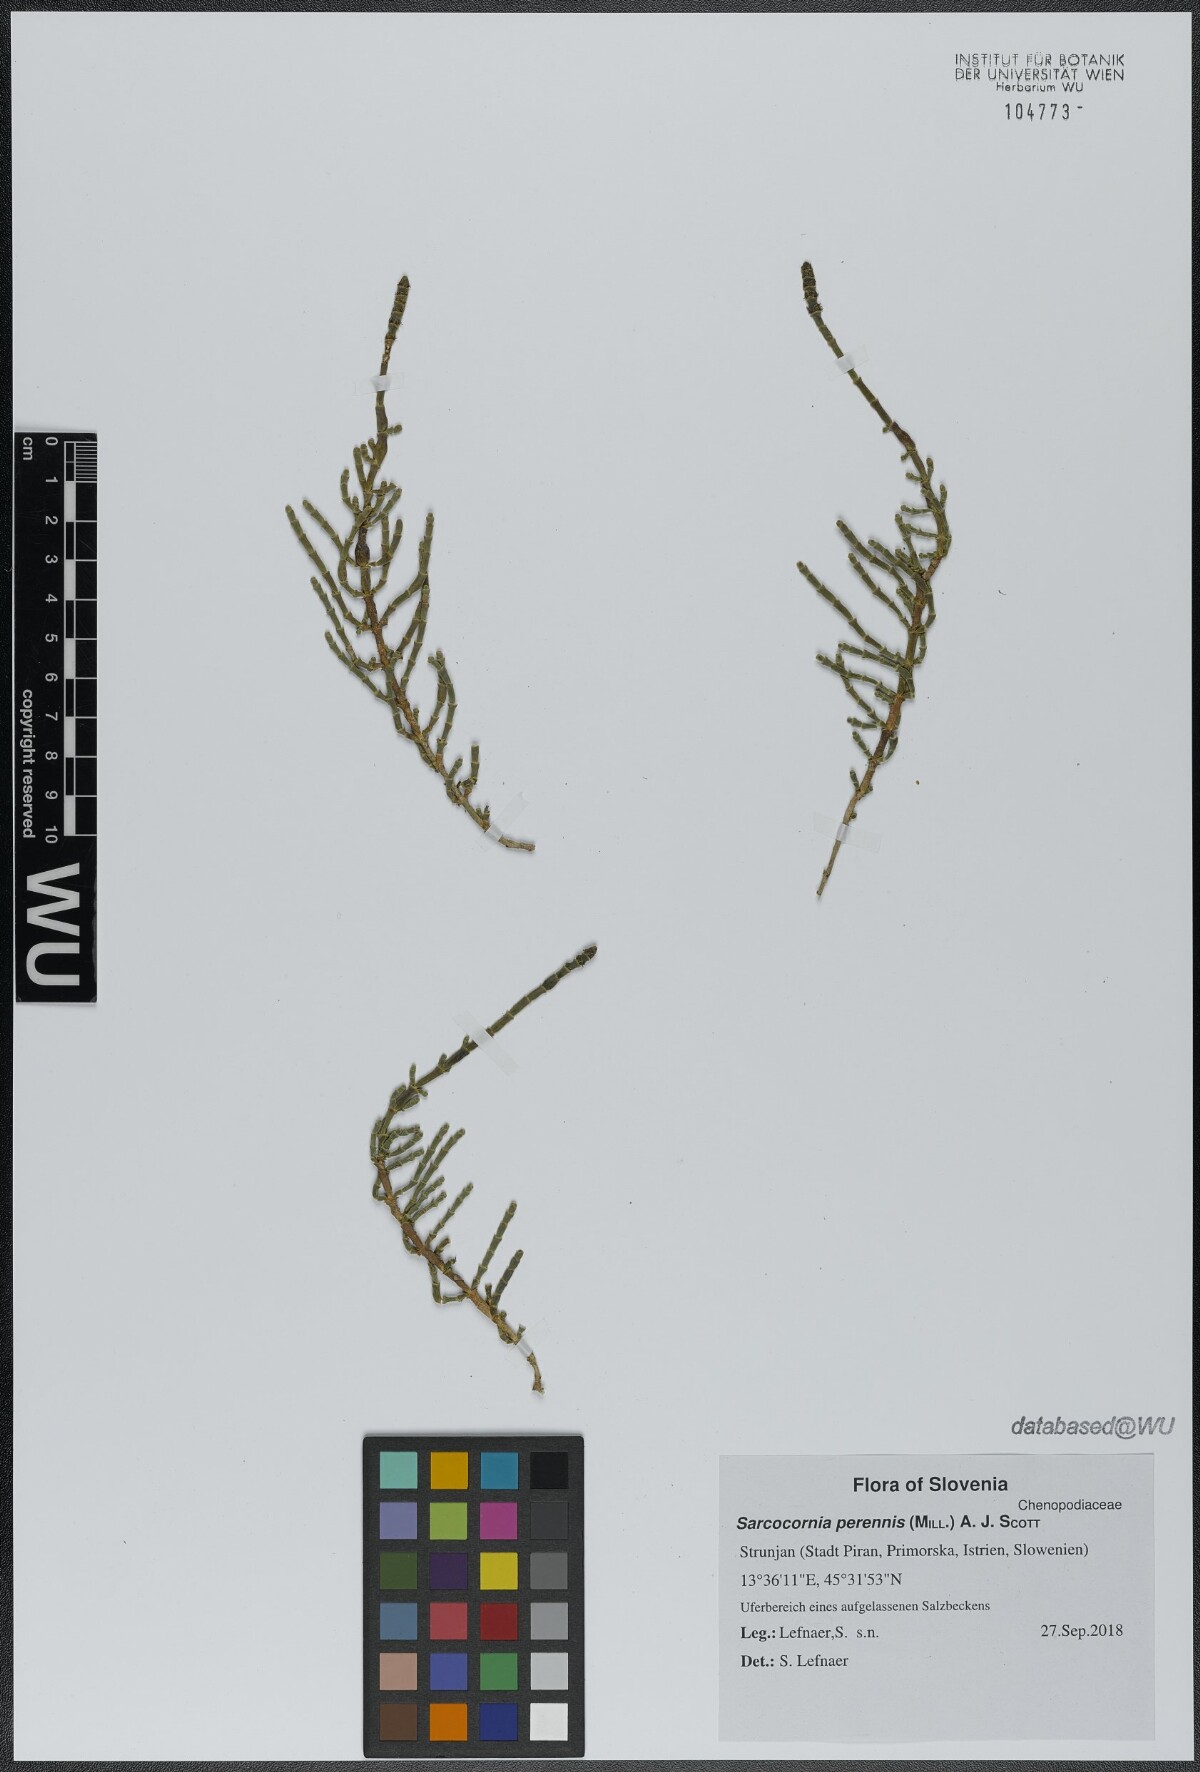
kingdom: Plantae
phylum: Tracheophyta
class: Magnoliopsida
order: Caryophyllales
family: Amaranthaceae
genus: Salicornia
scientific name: Salicornia perennis
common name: Chicken claws
